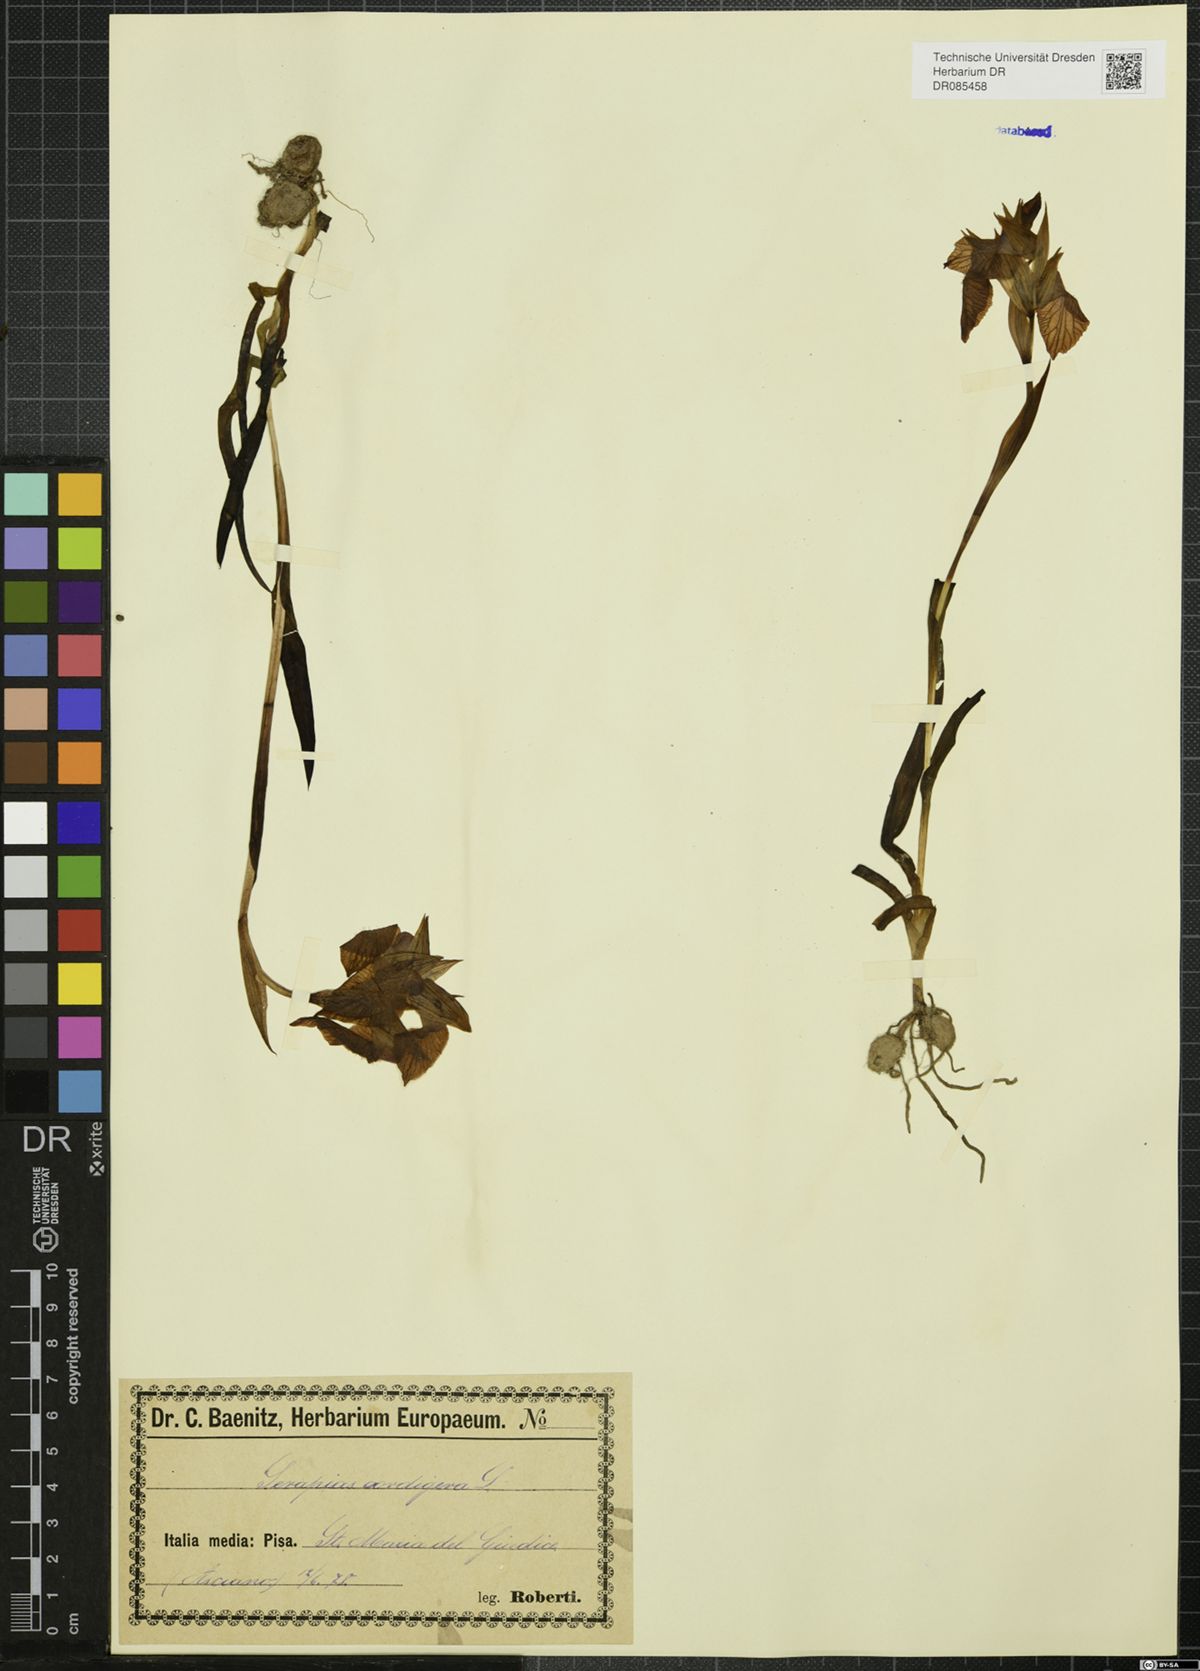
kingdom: Plantae
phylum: Tracheophyta
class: Liliopsida
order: Asparagales
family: Orchidaceae
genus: Serapias
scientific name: Serapias cordigera
